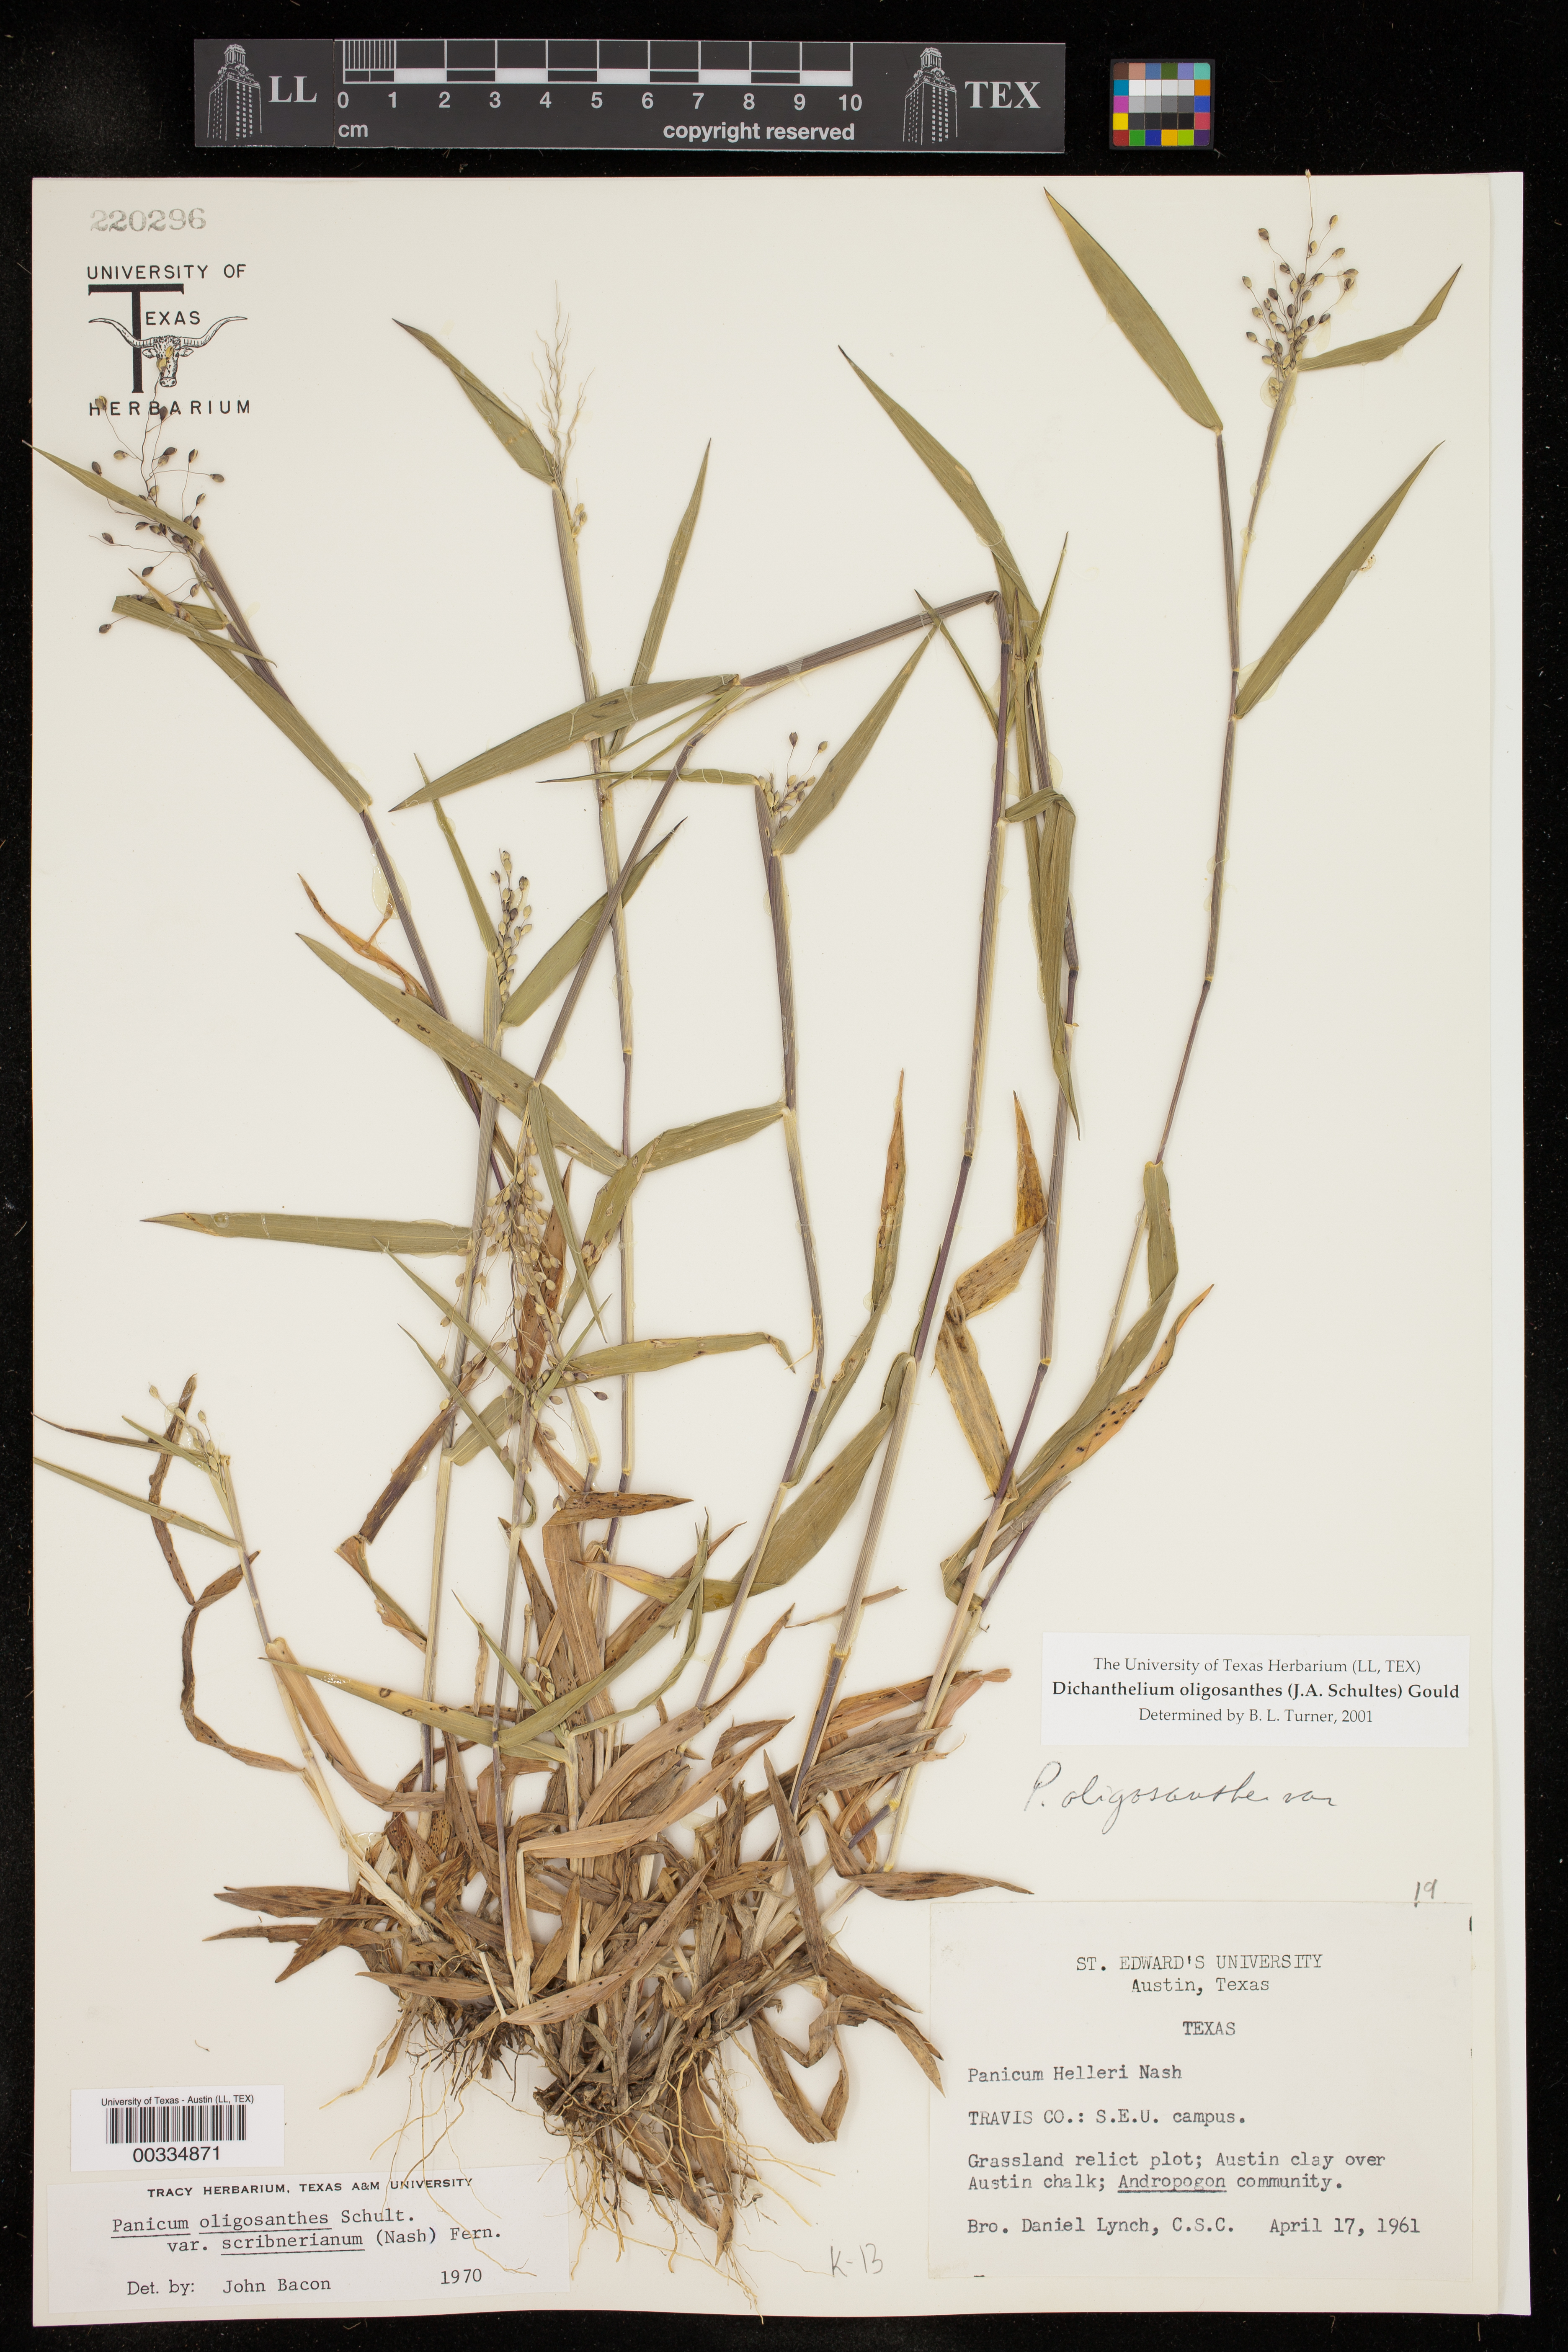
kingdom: Plantae
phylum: Tracheophyta
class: Liliopsida
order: Poales
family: Poaceae
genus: Dichanthelium
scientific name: Dichanthelium oligosanthes
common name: Few-anther obscuregrass
